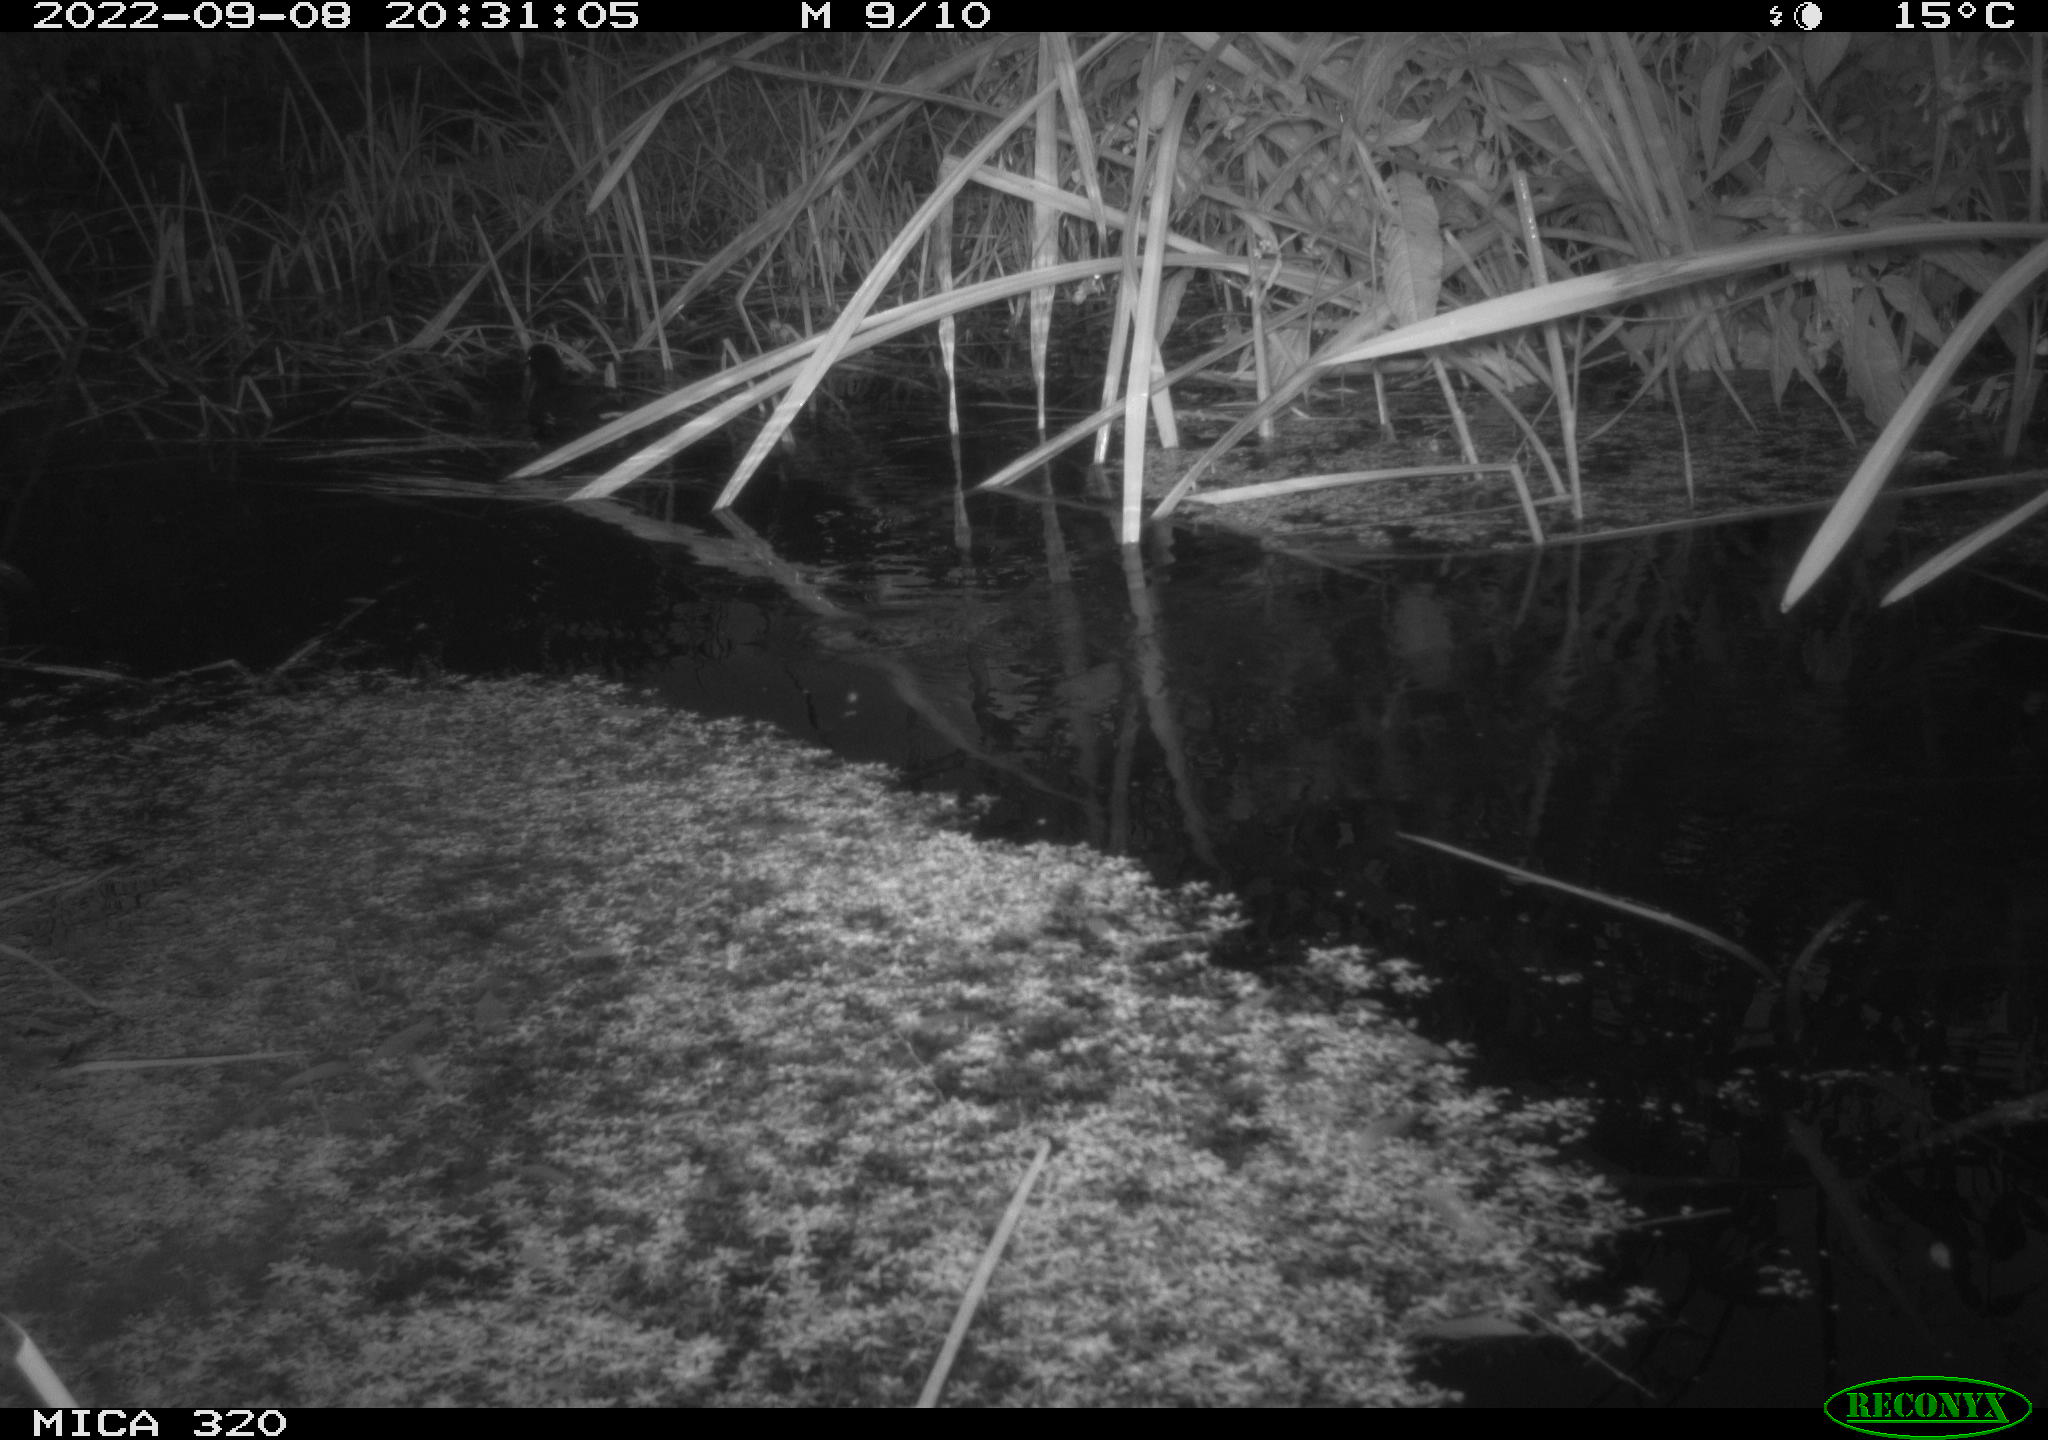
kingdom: Animalia
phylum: Chordata
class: Aves
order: Gruiformes
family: Rallidae
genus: Gallinula
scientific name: Gallinula chloropus
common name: Common moorhen
